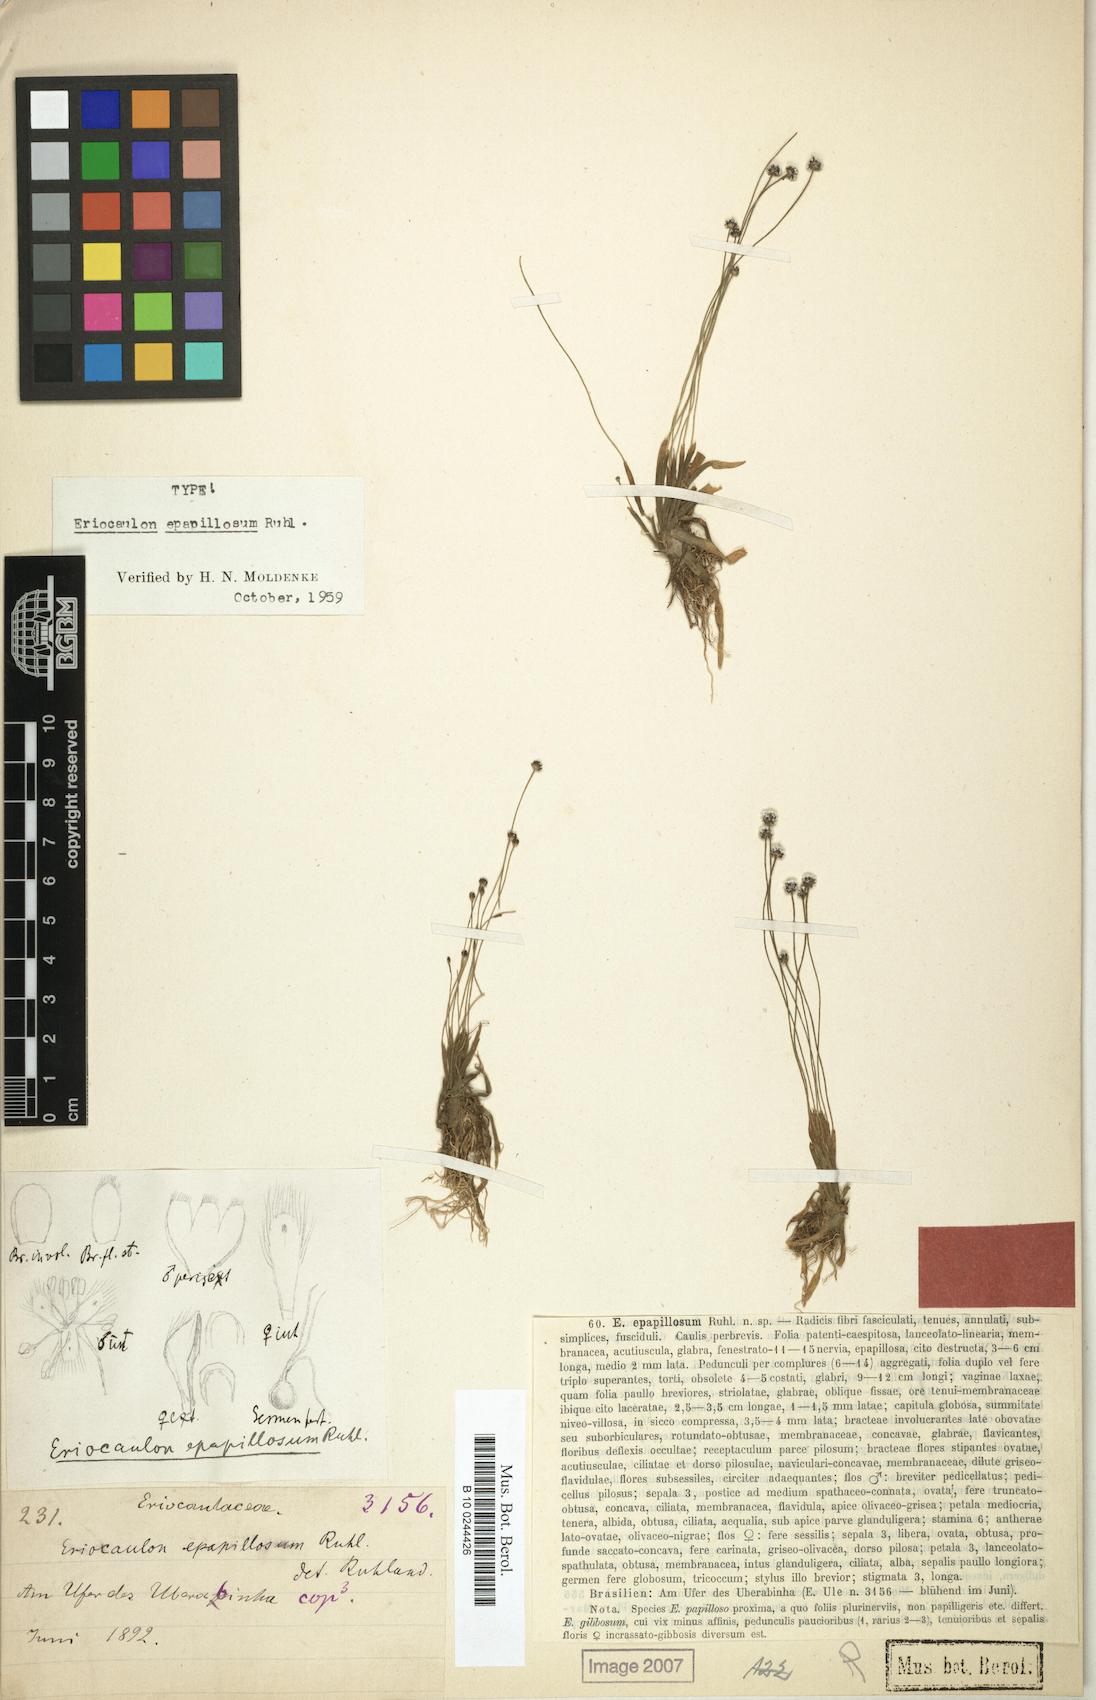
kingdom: Plantae
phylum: Tracheophyta
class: Liliopsida
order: Poales
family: Eriocaulaceae
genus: Eriocaulon
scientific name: Eriocaulon epapillosum
